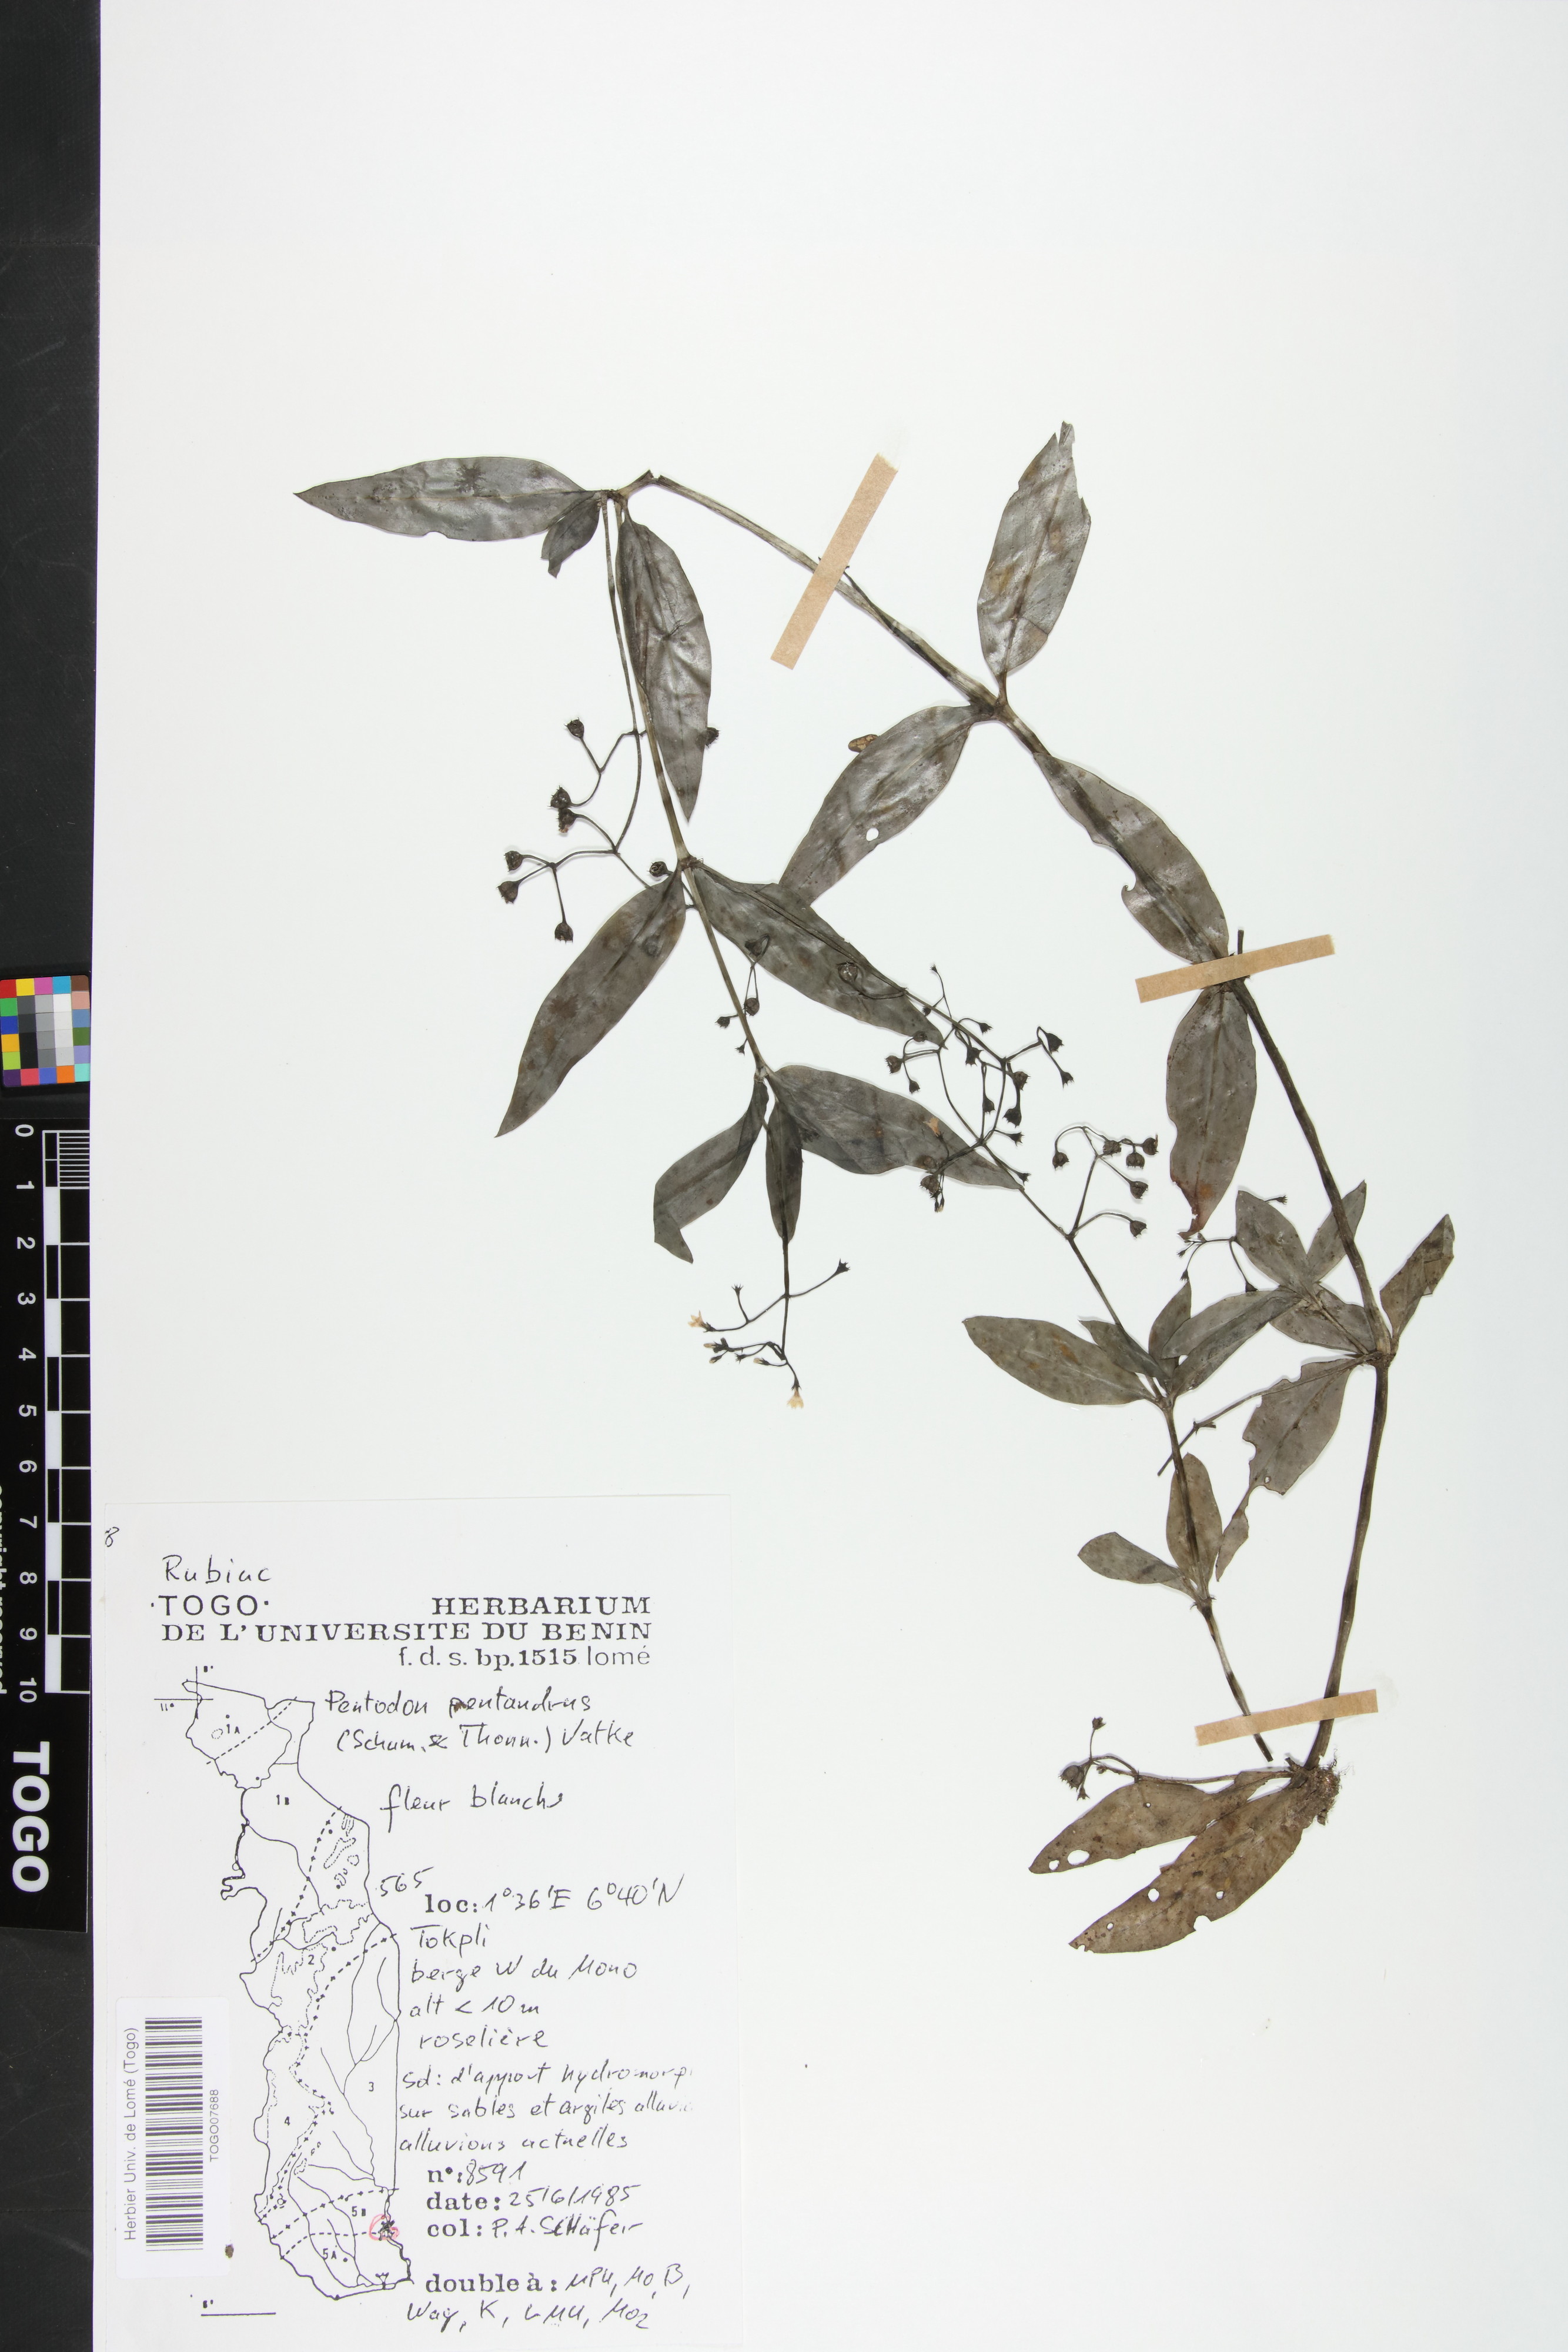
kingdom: Plantae
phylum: Tracheophyta
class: Magnoliopsida
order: Gentianales
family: Rubiaceae
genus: Pentodon
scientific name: Pentodon pentandrus
